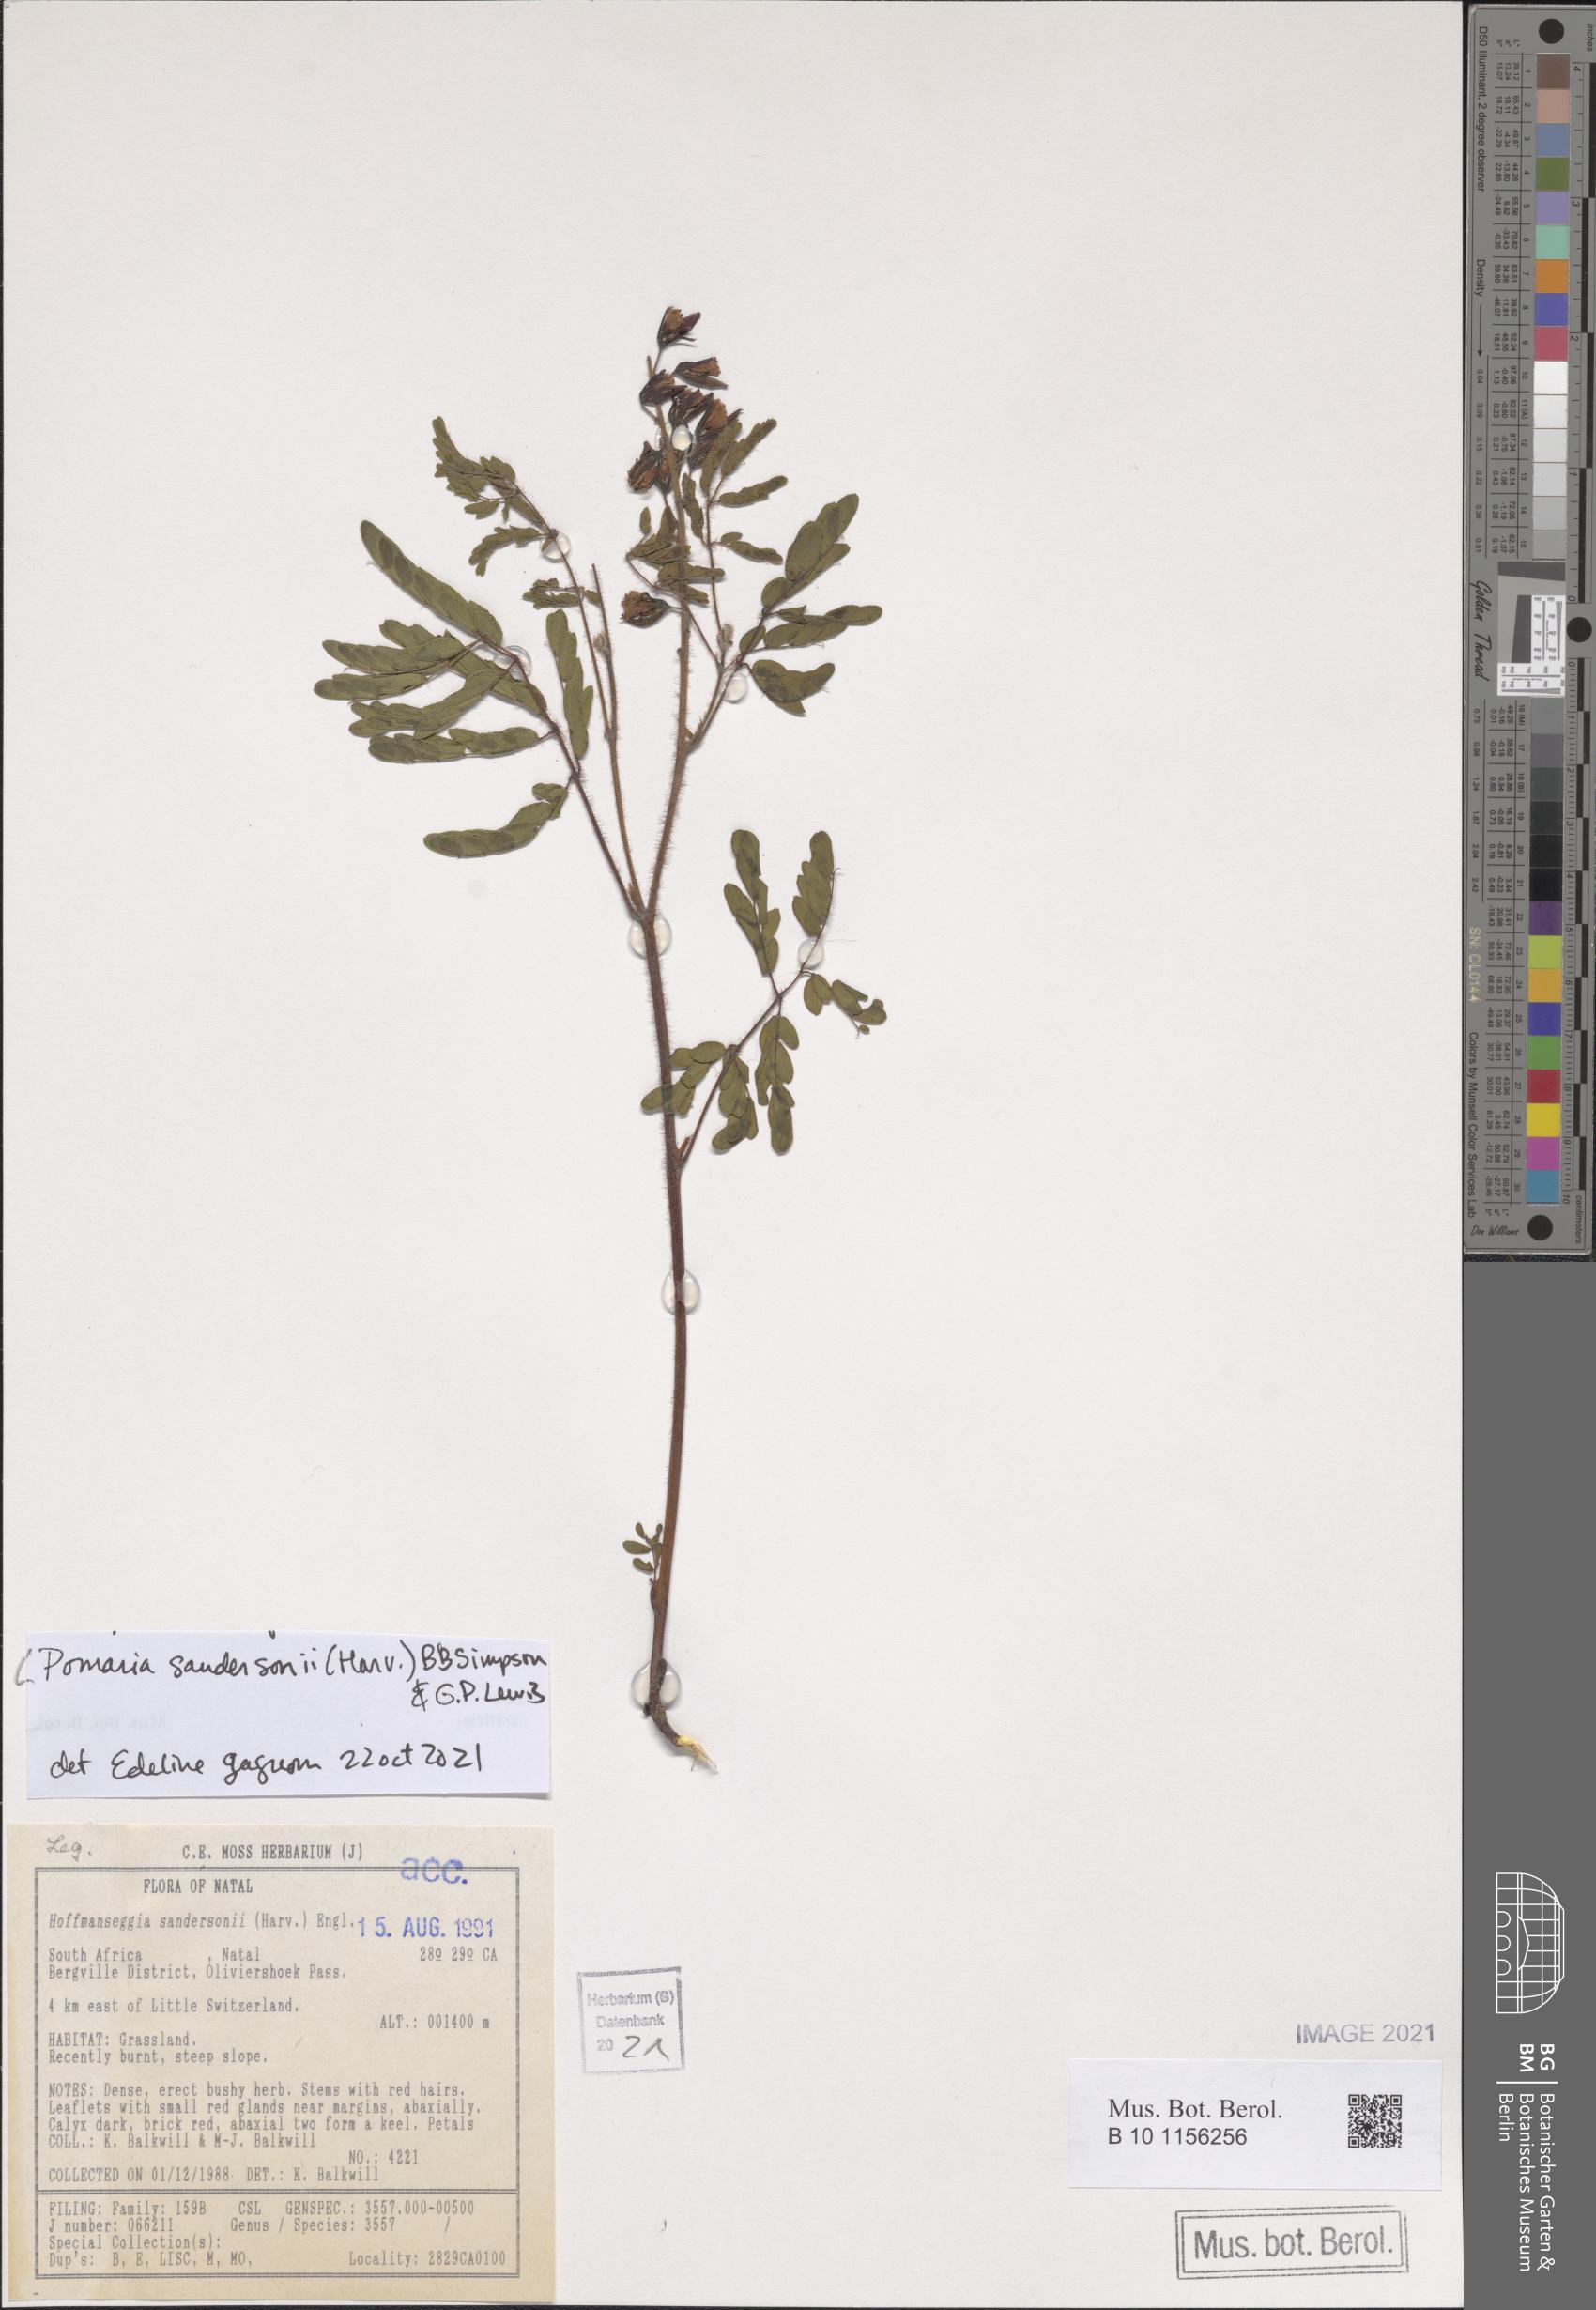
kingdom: Plantae
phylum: Tracheophyta
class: Magnoliopsida
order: Fabales
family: Fabaceae
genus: Pomaria
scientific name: Pomaria sandersonii
